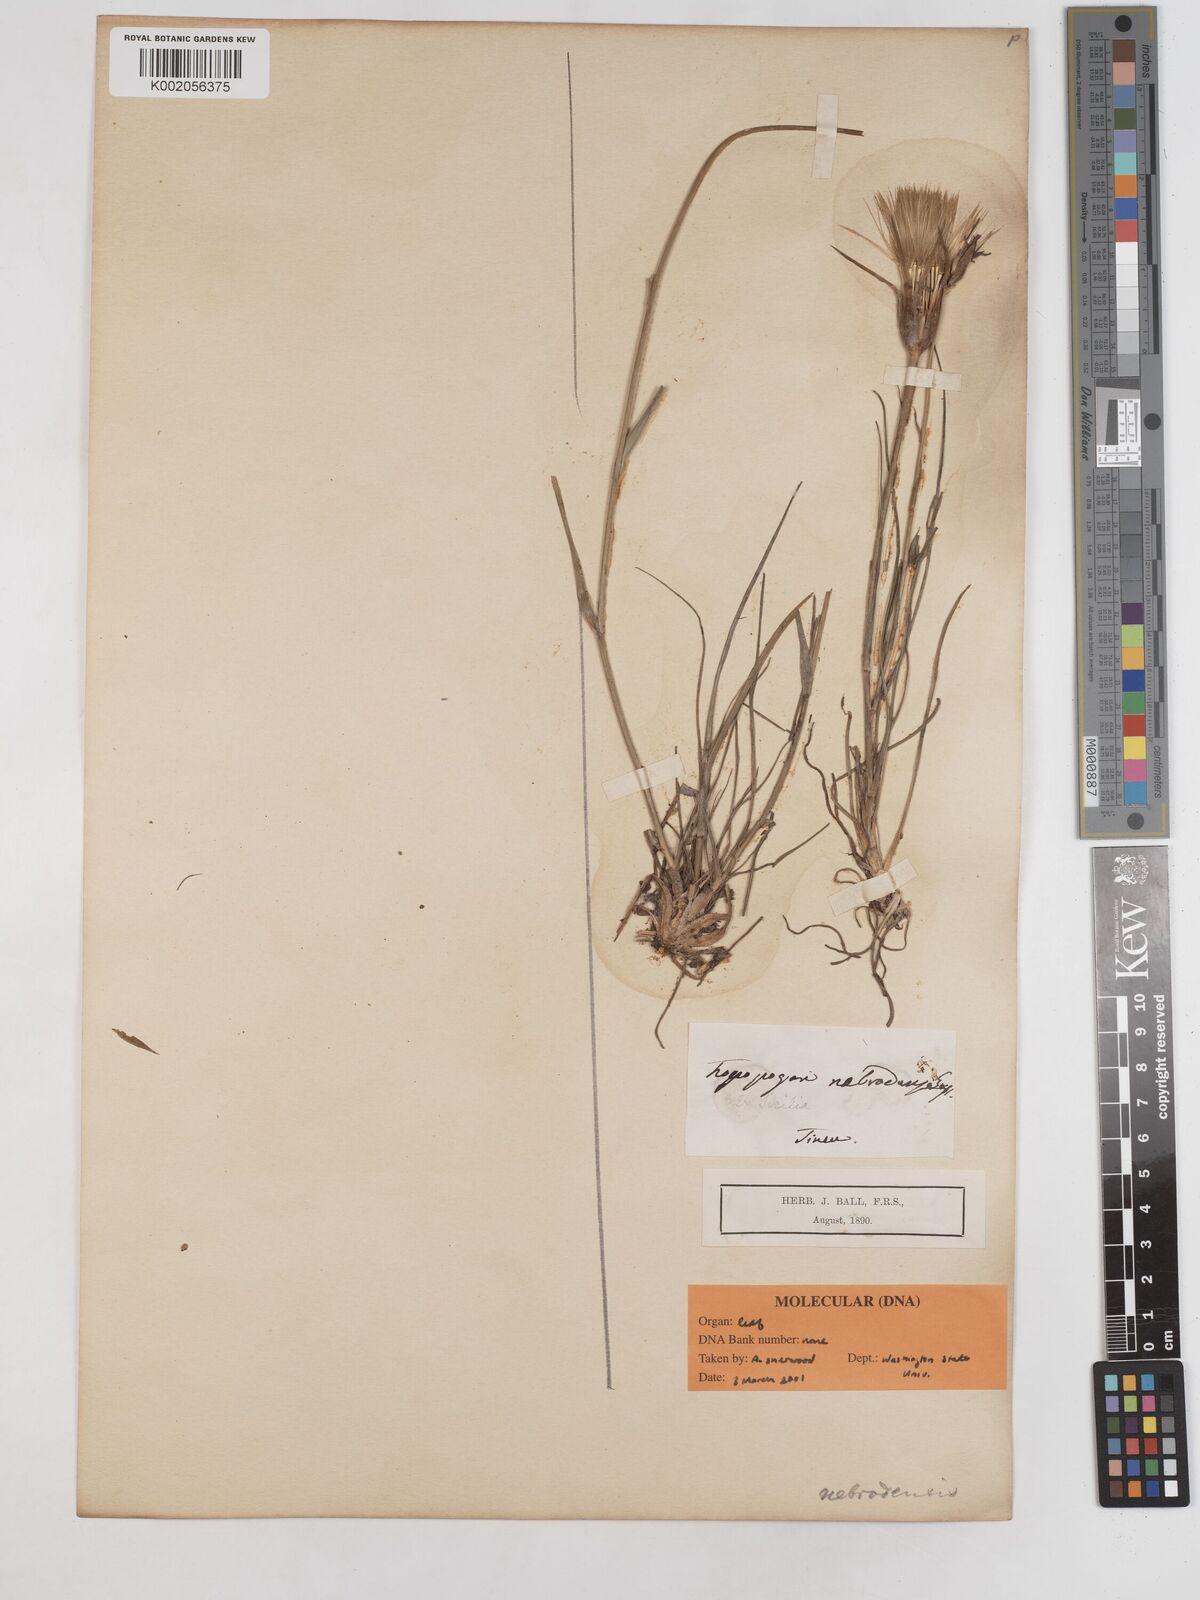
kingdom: Plantae
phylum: Tracheophyta
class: Magnoliopsida
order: Asterales
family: Asteraceae
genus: Tragopogon
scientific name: Tragopogon crocifolius
